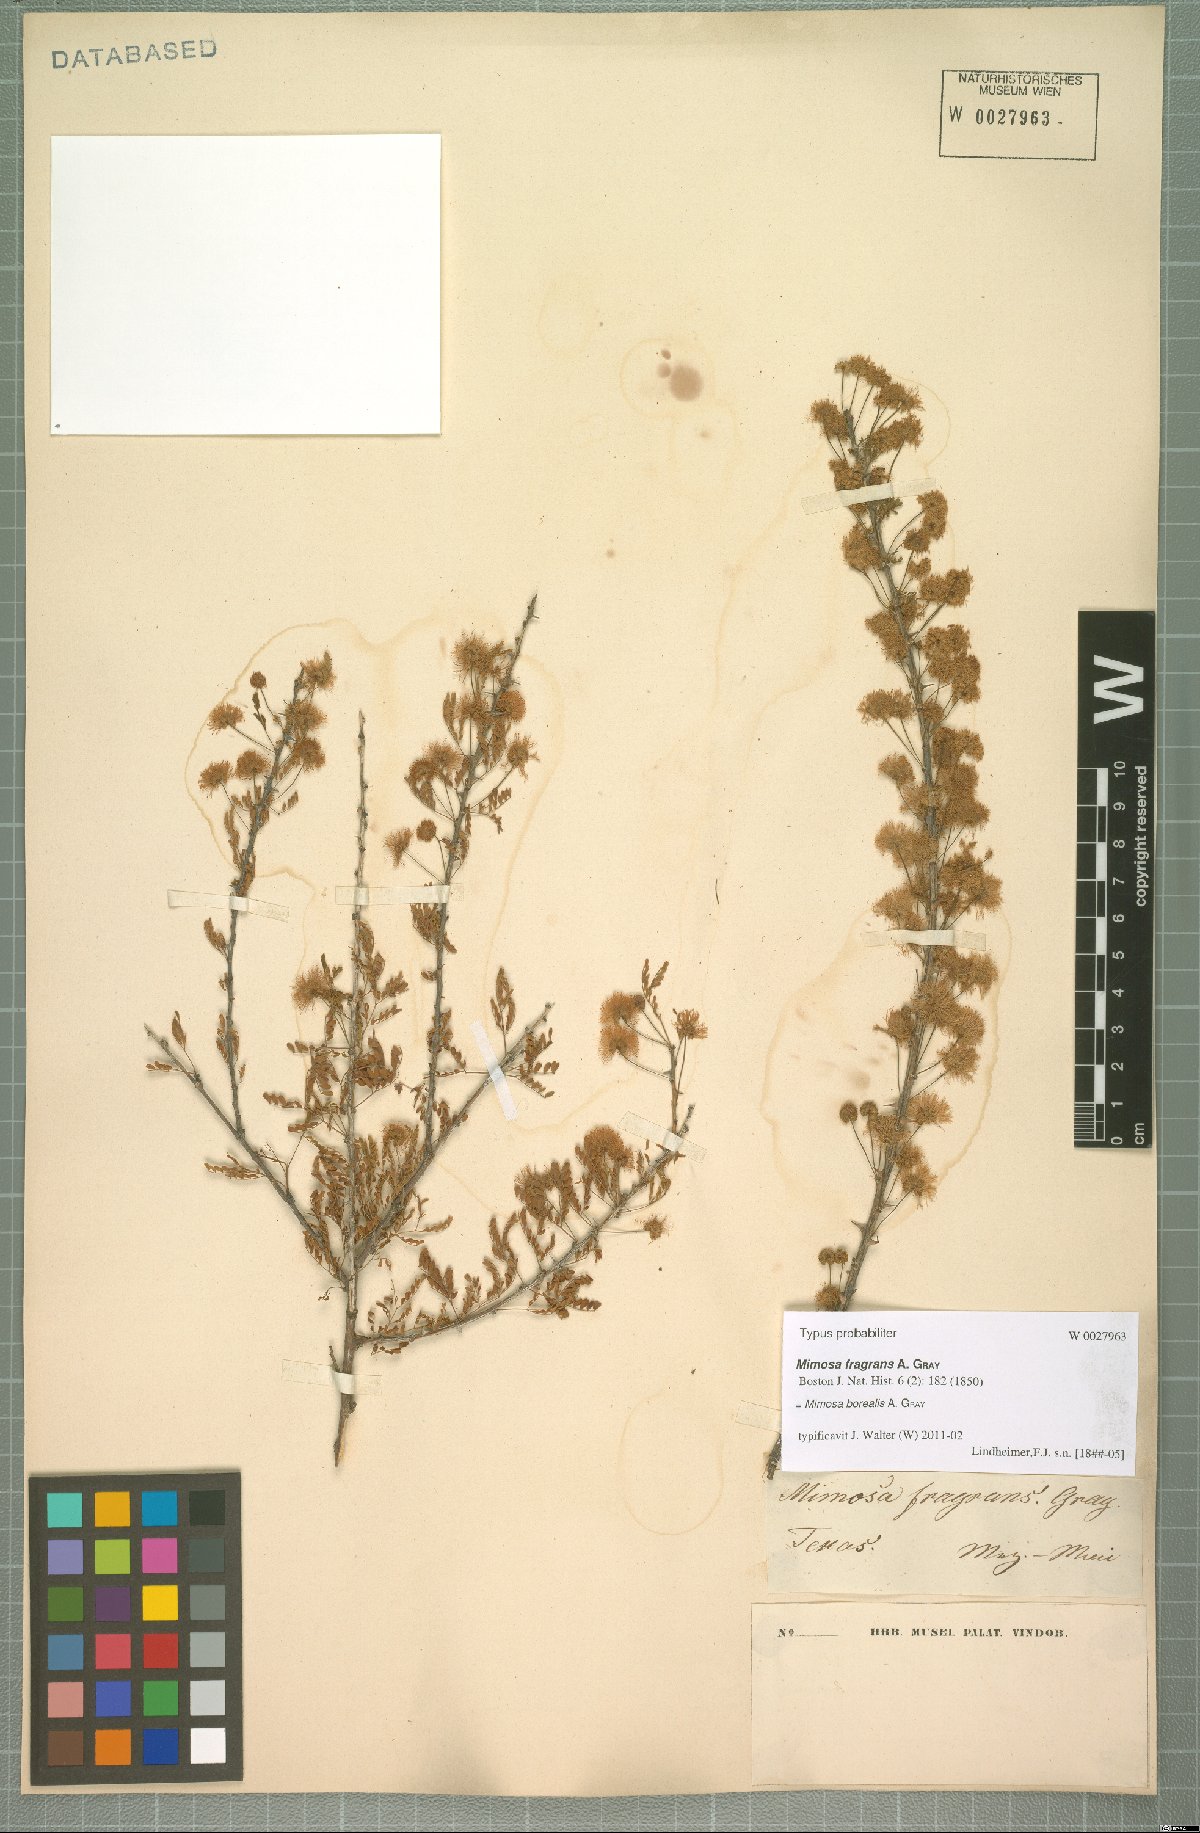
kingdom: Plantae
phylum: Tracheophyta
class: Magnoliopsida
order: Fabales
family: Fabaceae
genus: Mimosa
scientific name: Mimosa borealis
